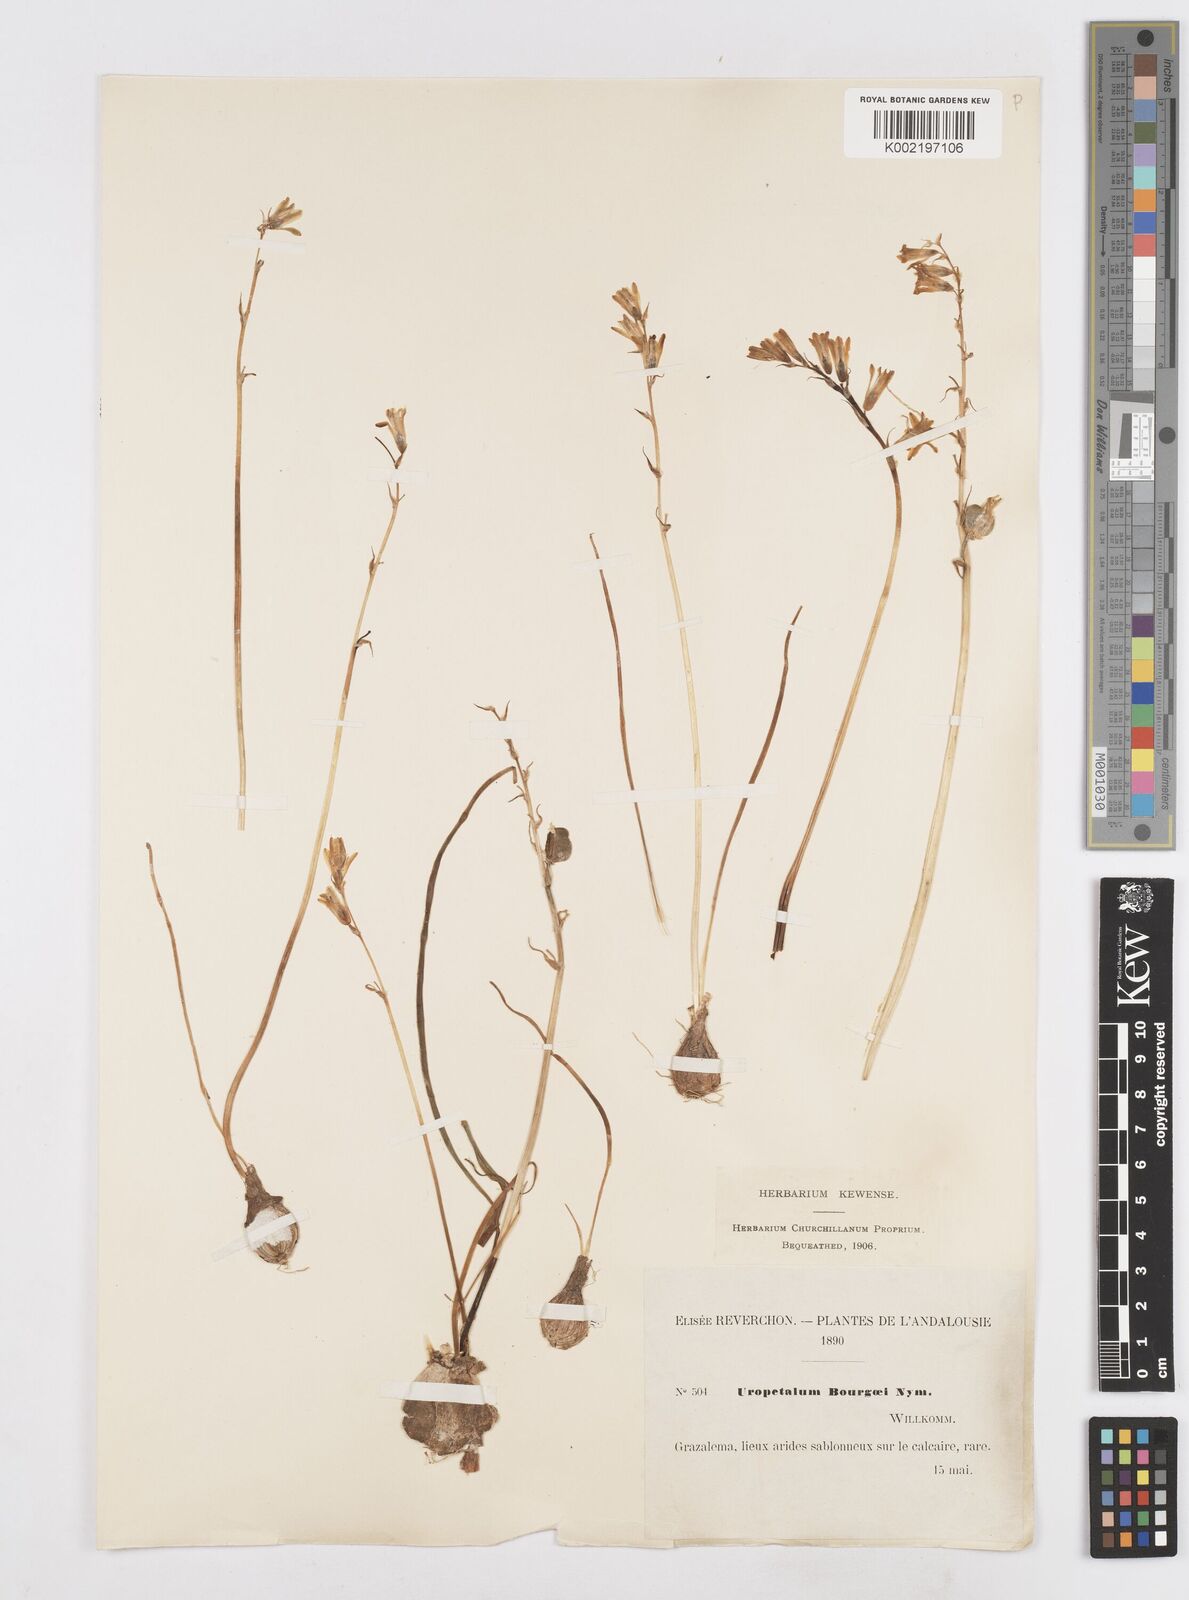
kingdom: Plantae
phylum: Tracheophyta
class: Liliopsida
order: Asparagales
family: Asparagaceae
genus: Dipcadi
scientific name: Dipcadi serotinum
